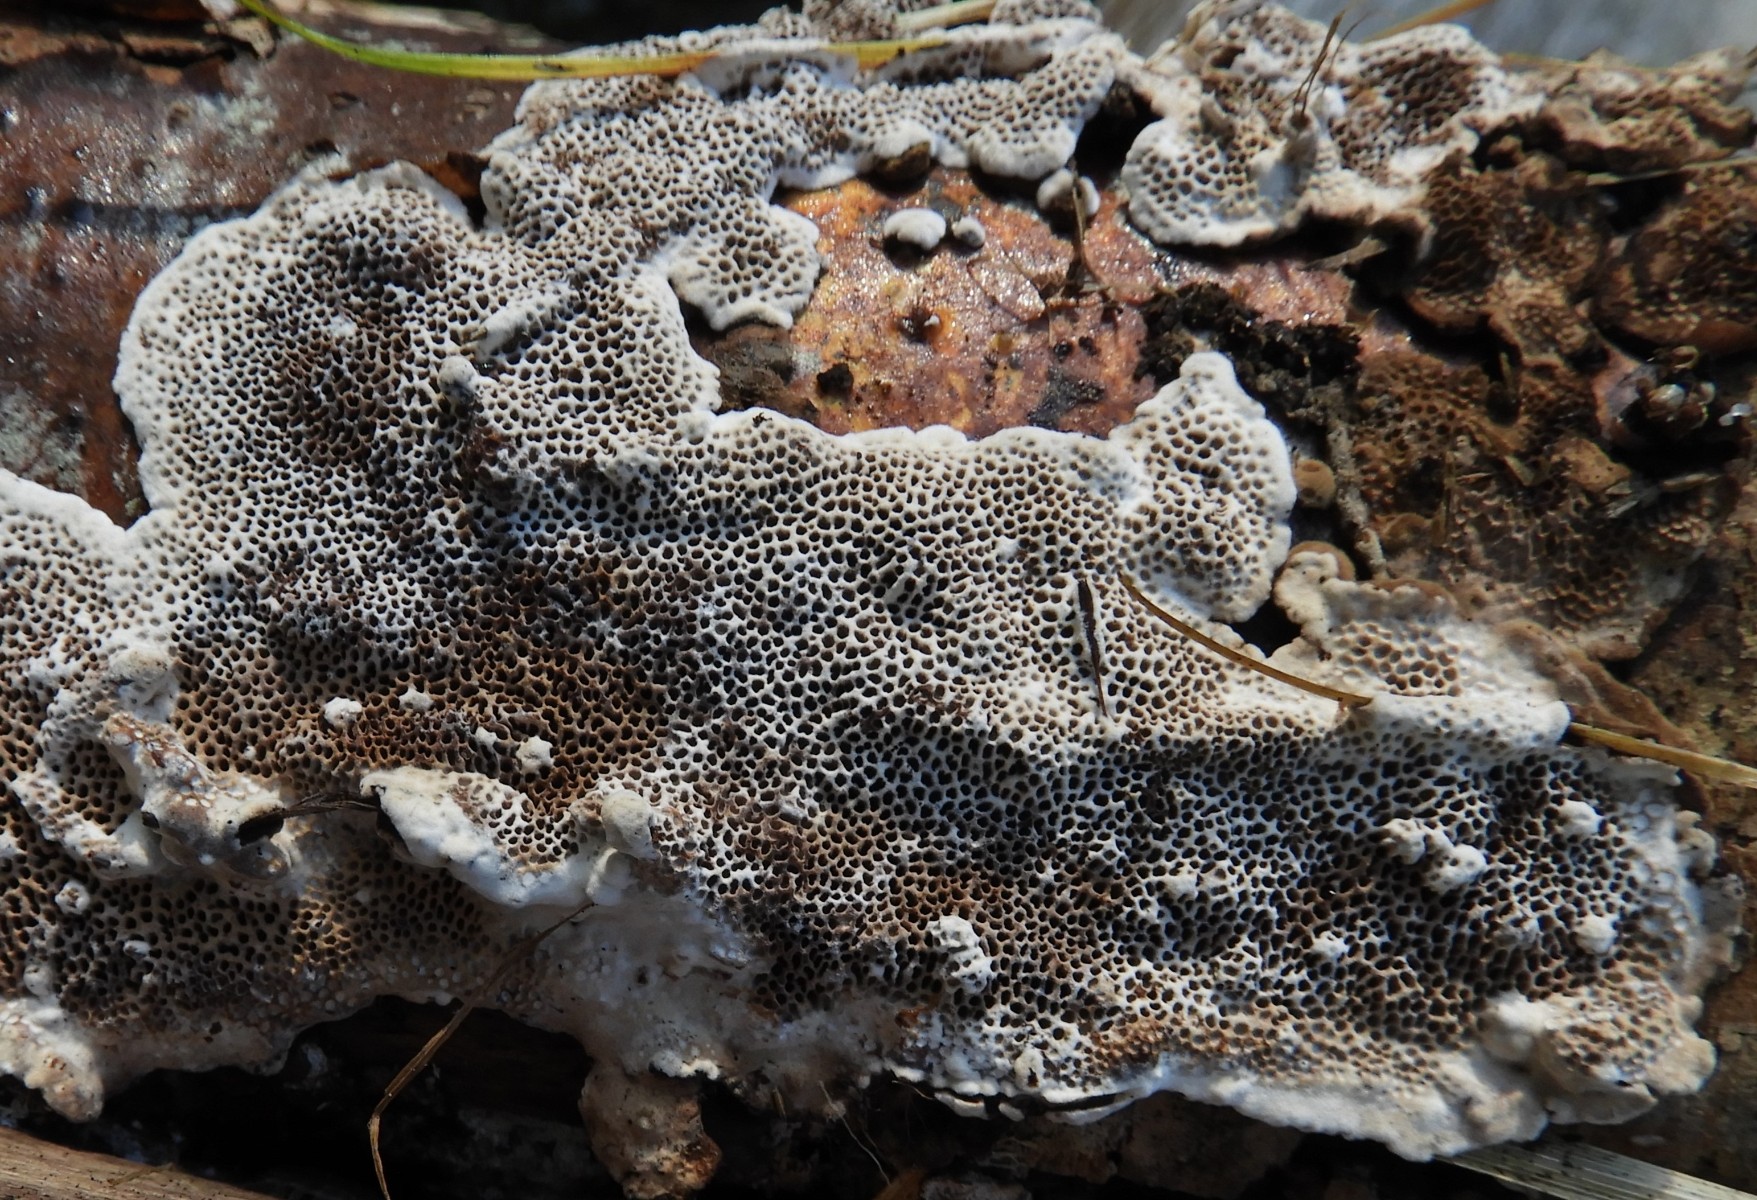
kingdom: Fungi
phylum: Basidiomycota
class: Agaricomycetes
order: Polyporales
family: Polyporaceae
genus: Podofomes
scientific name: Podofomes mollis
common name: blød begporesvamp
